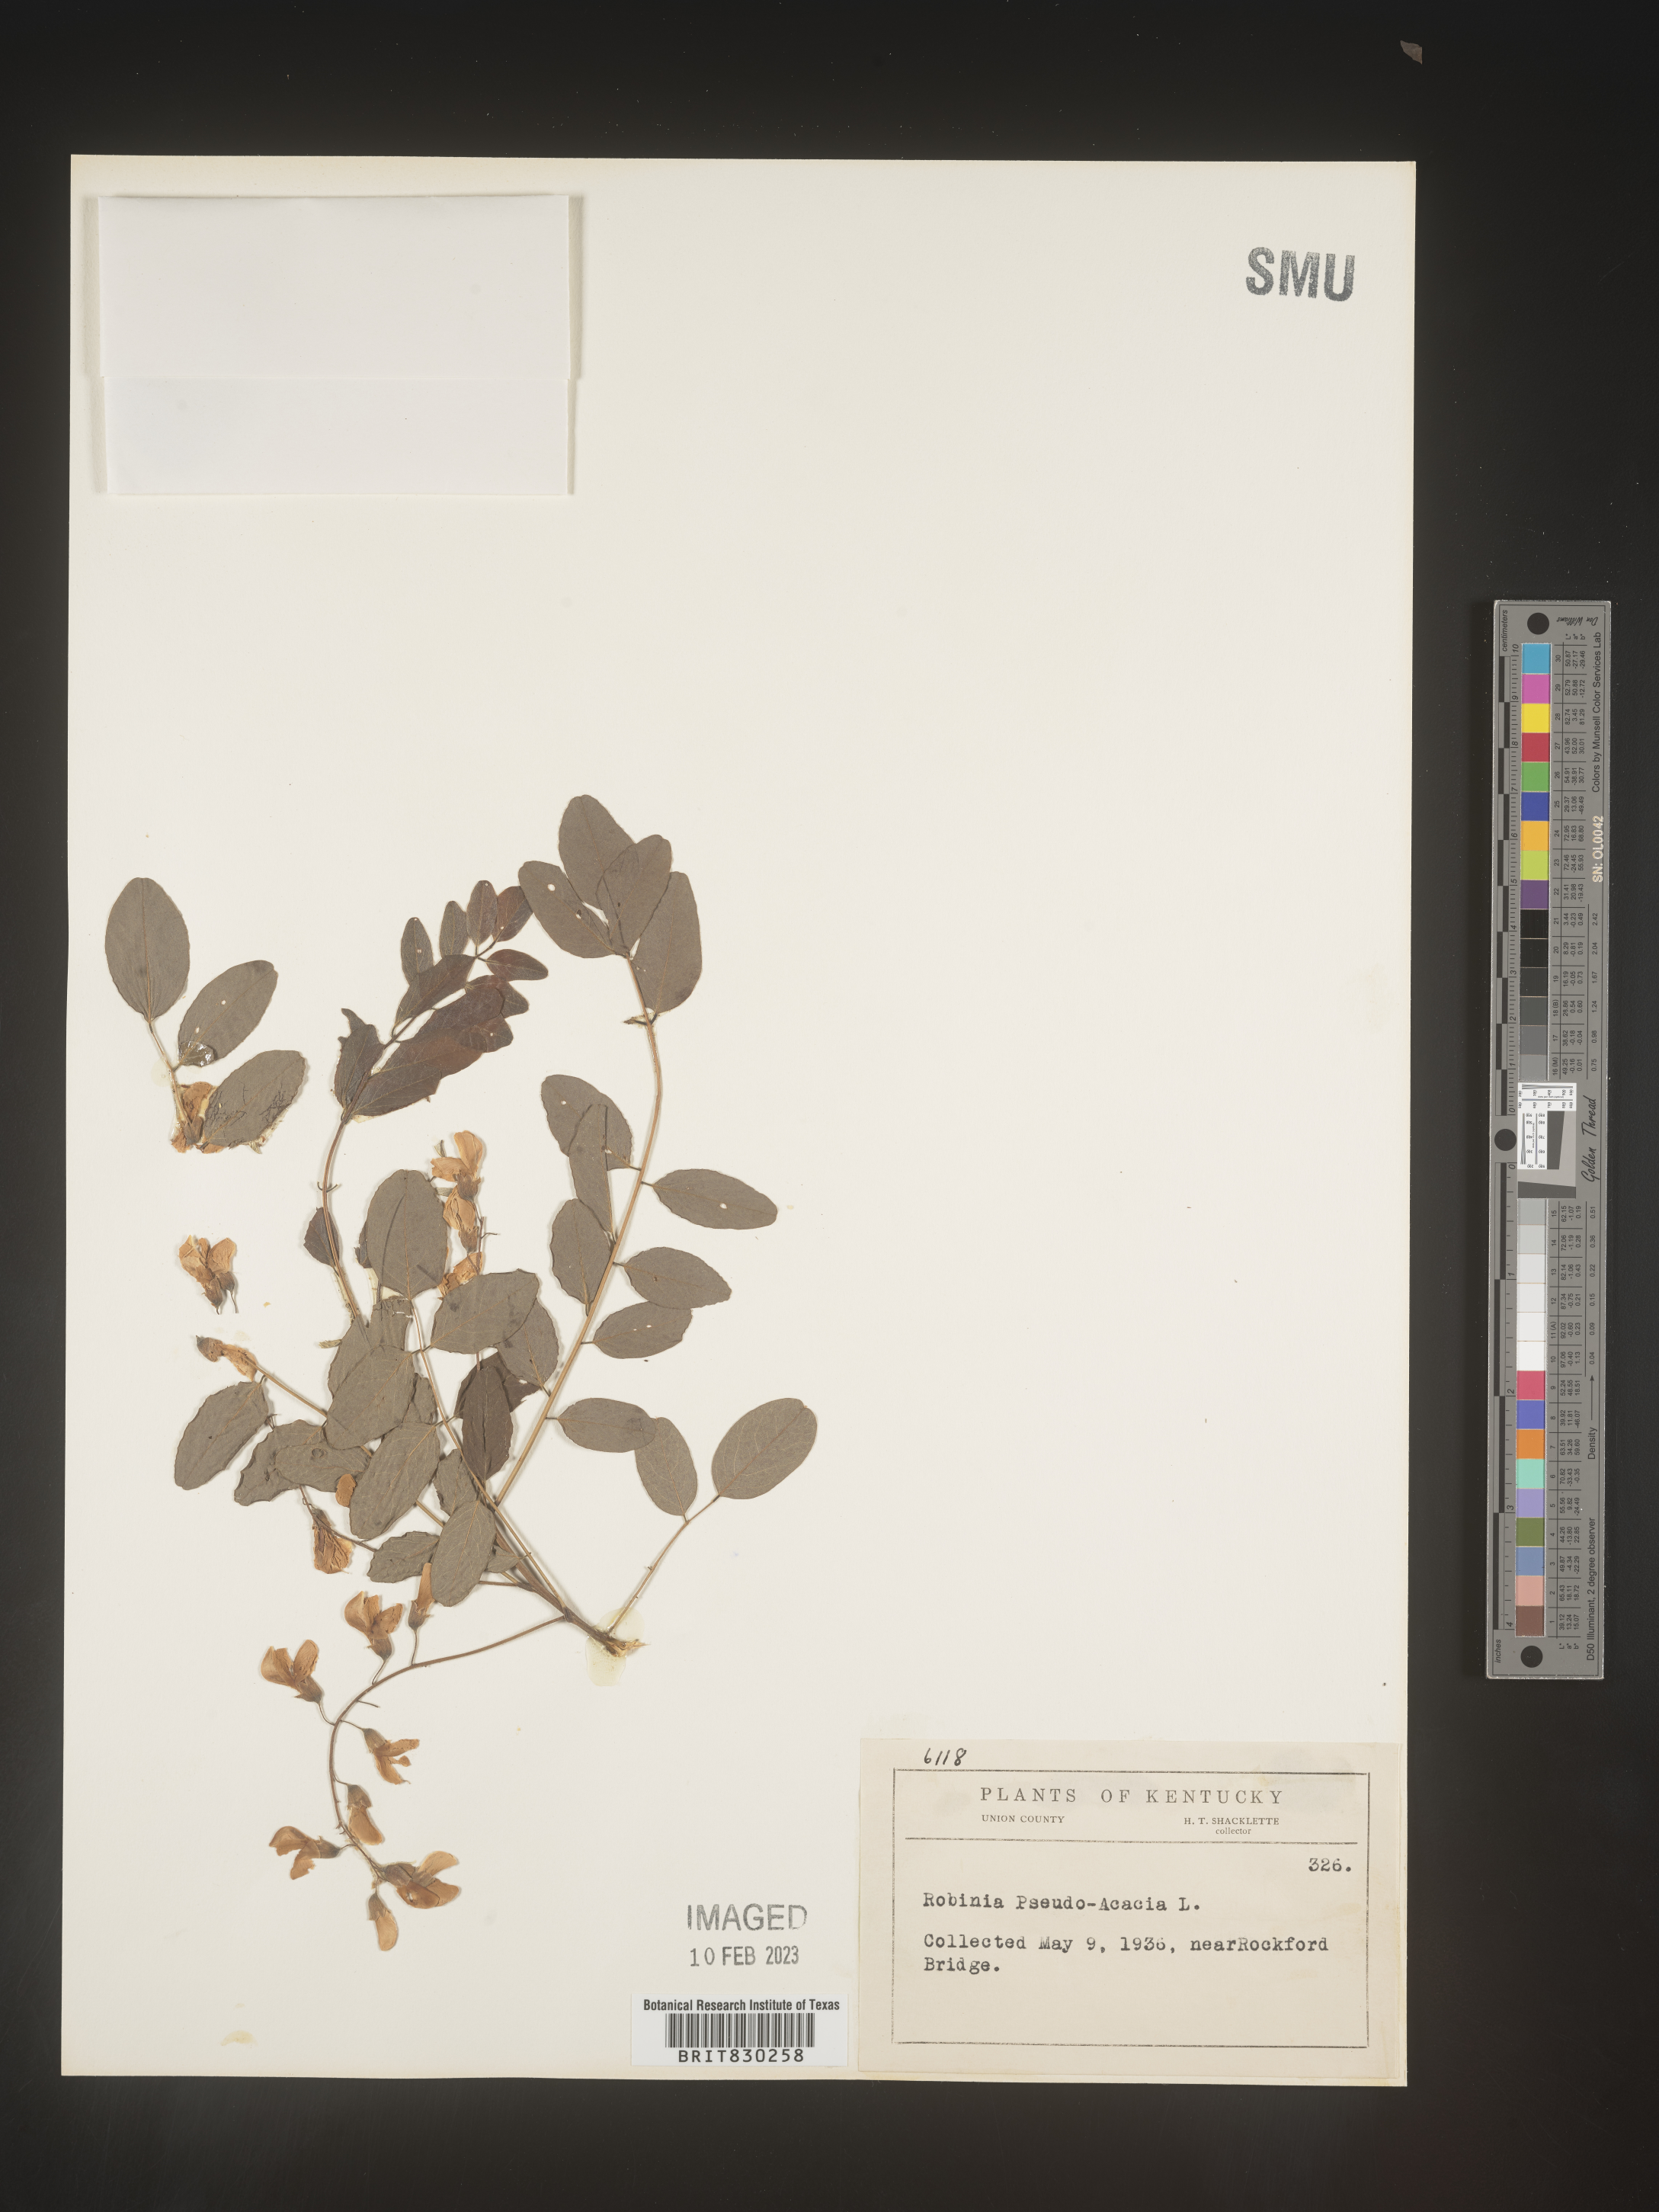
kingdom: Plantae
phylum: Tracheophyta
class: Magnoliopsida
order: Fabales
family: Fabaceae
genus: Robinia
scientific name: Robinia pseudoacacia
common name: Black locust
